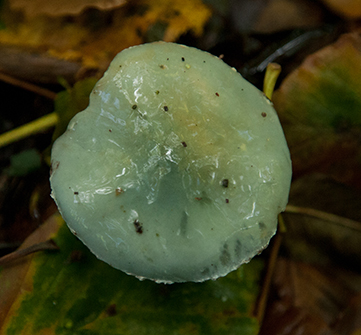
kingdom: Fungi
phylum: Basidiomycota
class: Agaricomycetes
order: Agaricales
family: Strophariaceae
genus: Stropharia
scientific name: Stropharia cyanea
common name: blågrøn bredblad
